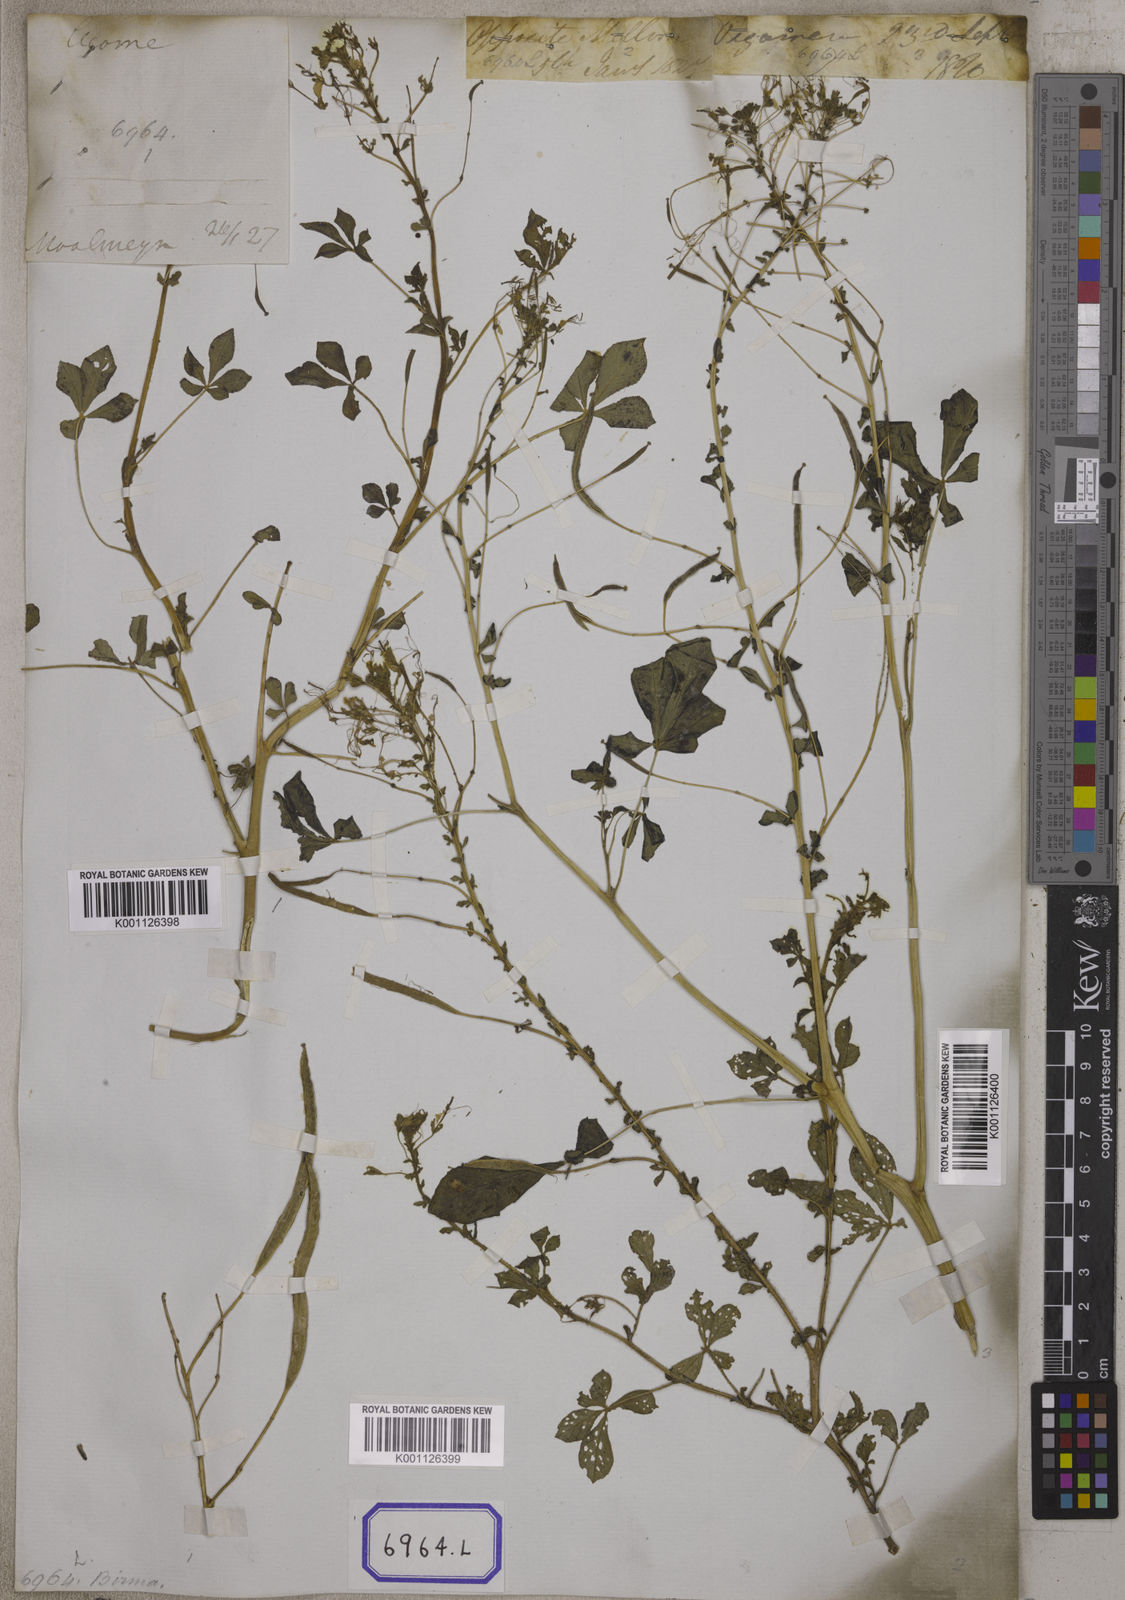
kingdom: Plantae
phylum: Tracheophyta
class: Magnoliopsida
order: Brassicales
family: Cleomaceae
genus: Gynandropsis
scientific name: Gynandropsis gynandra
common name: Spiderwisp
